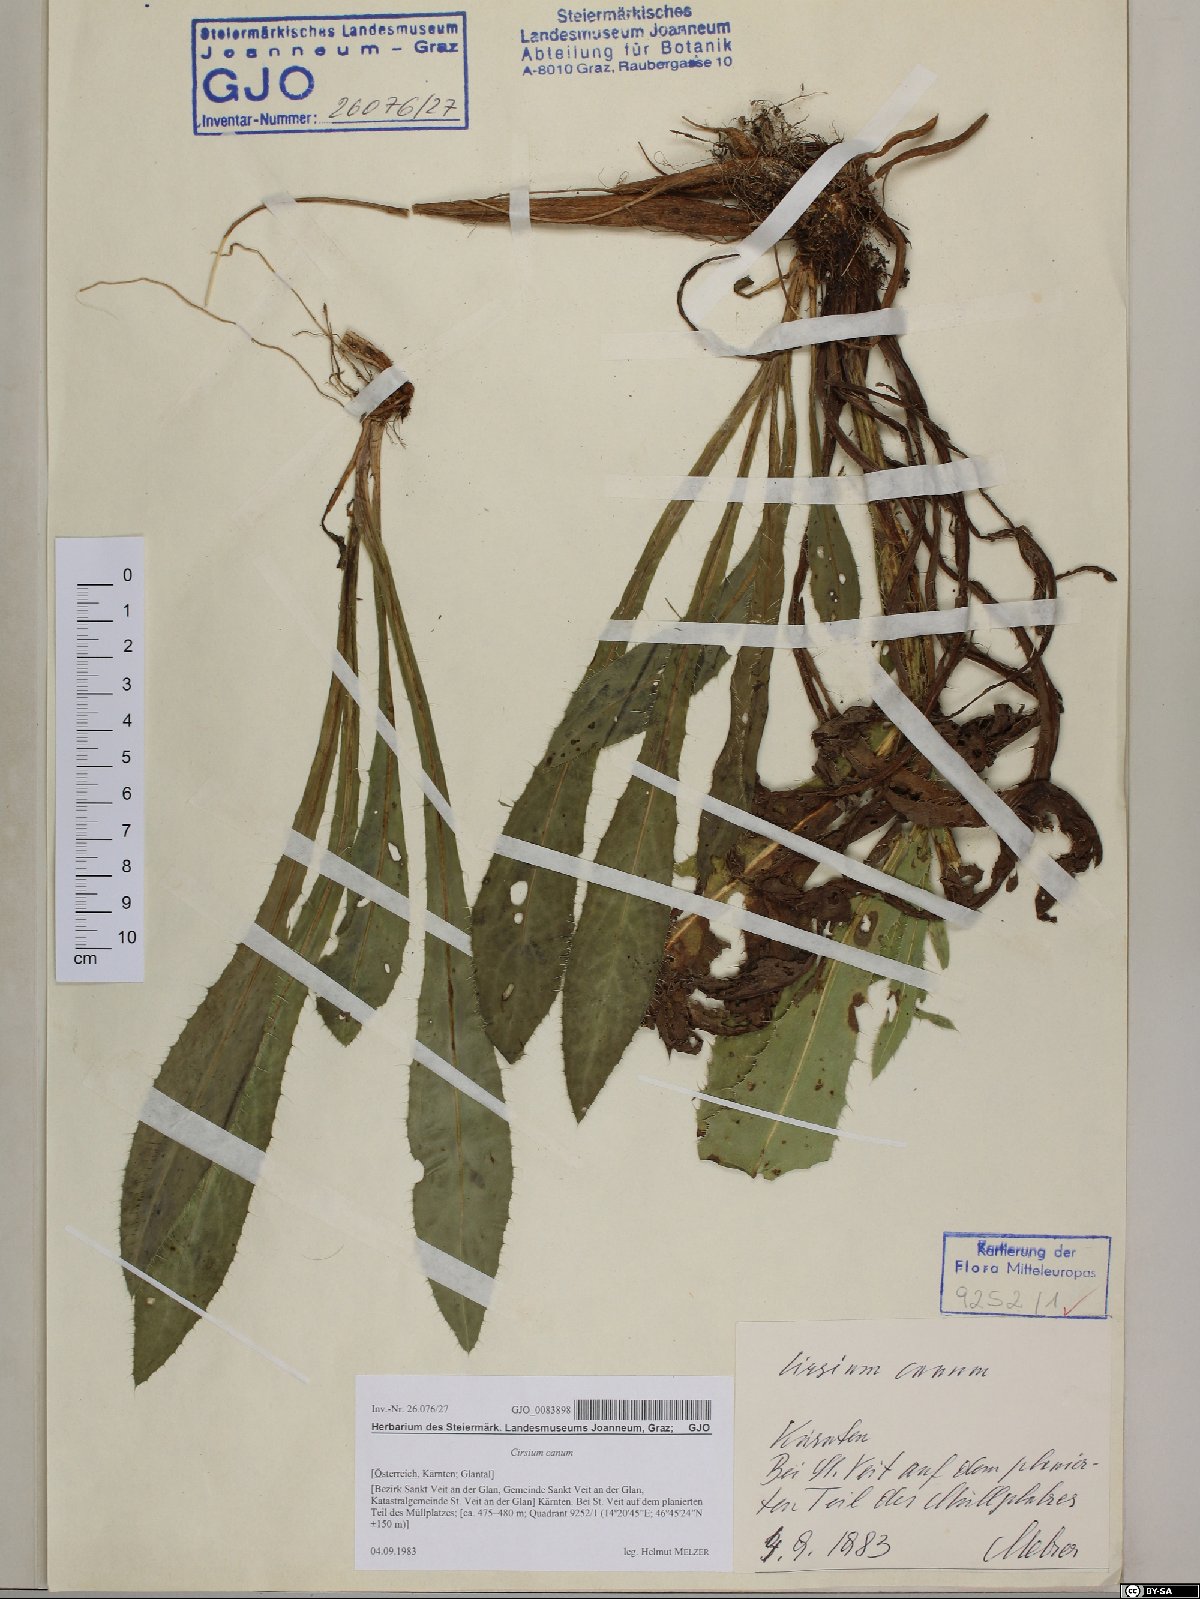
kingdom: Plantae
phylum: Tracheophyta
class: Magnoliopsida
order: Asterales
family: Asteraceae
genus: Cirsium
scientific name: Cirsium canum
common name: Queen anne's thistle
